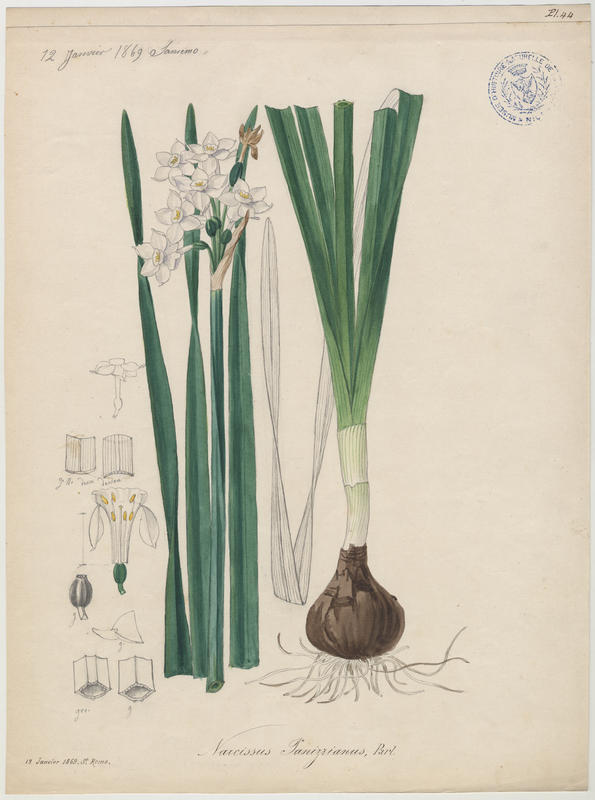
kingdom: Plantae
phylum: Tracheophyta
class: Liliopsida
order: Asparagales
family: Amaryllidaceae
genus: Narcissus
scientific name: Narcissus papyraceus
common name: Paper-white daffodil
